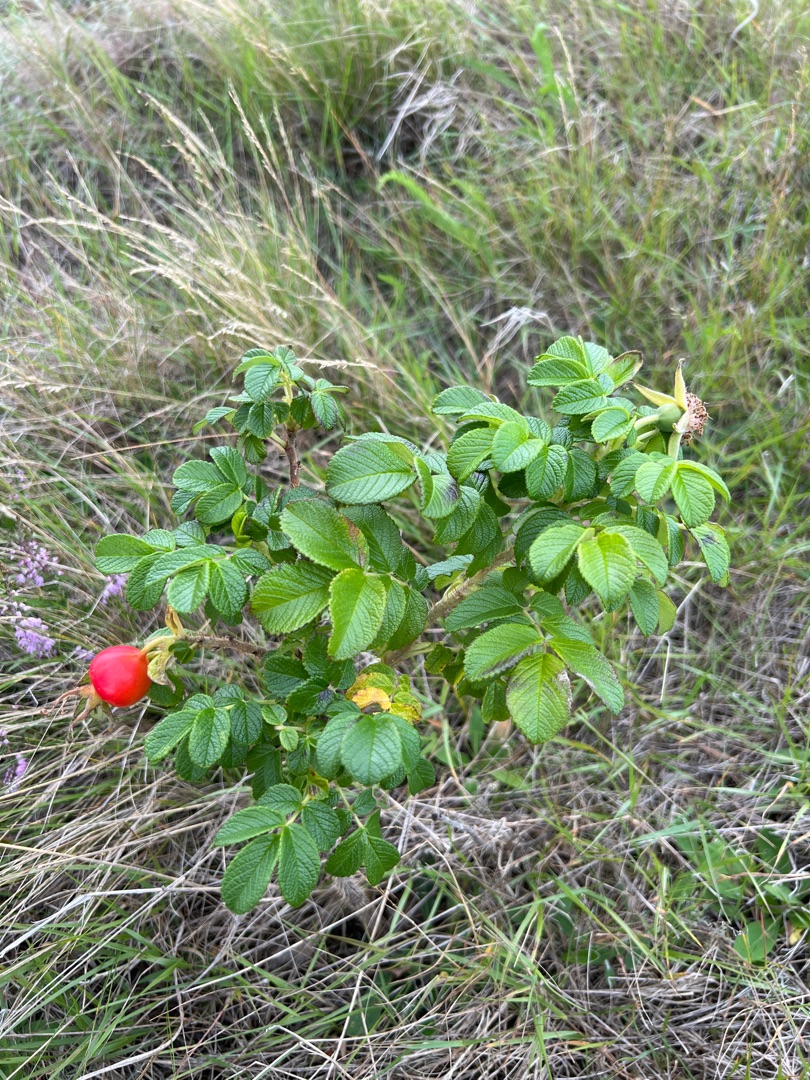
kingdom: Plantae
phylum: Tracheophyta
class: Magnoliopsida
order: Rosales
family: Rosaceae
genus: Rosa
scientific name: Rosa rugosa
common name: Rynket rose
